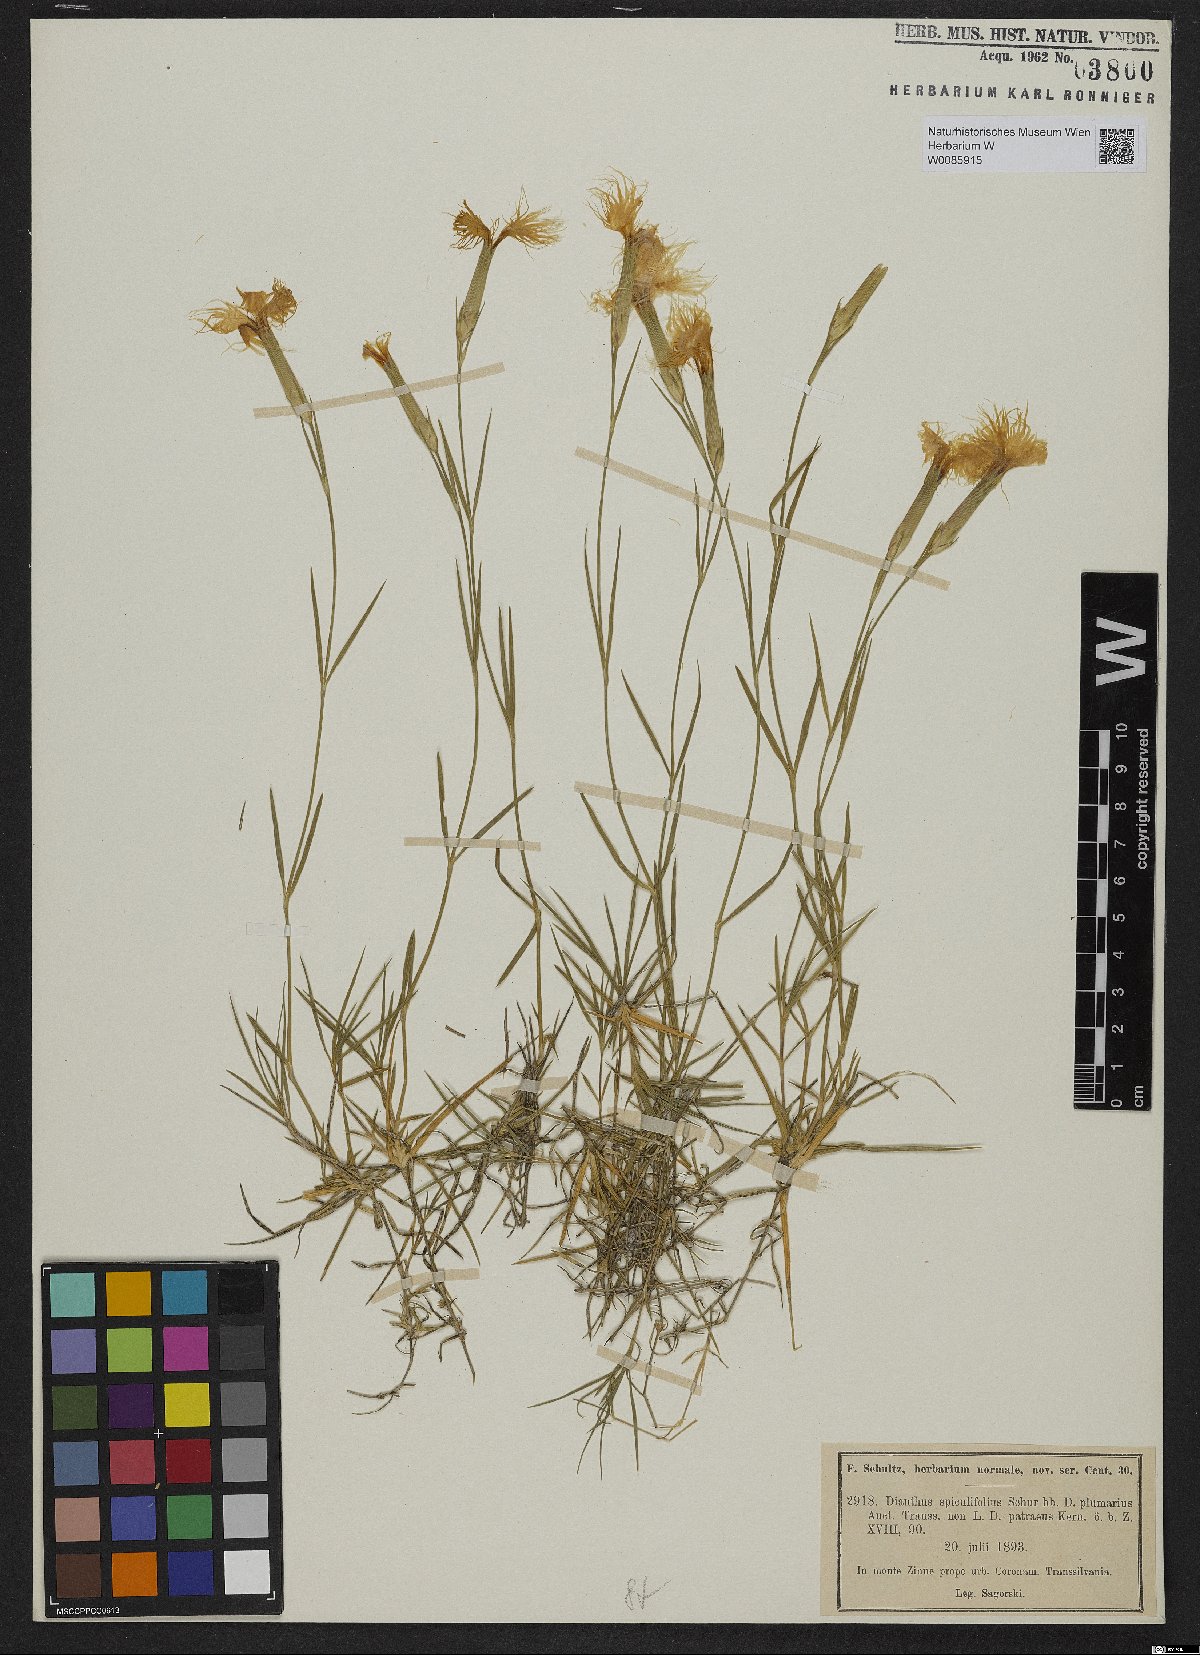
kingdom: Plantae
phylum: Tracheophyta
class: Magnoliopsida
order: Caryophyllales
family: Caryophyllaceae
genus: Dianthus
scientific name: Dianthus spiculifolius
